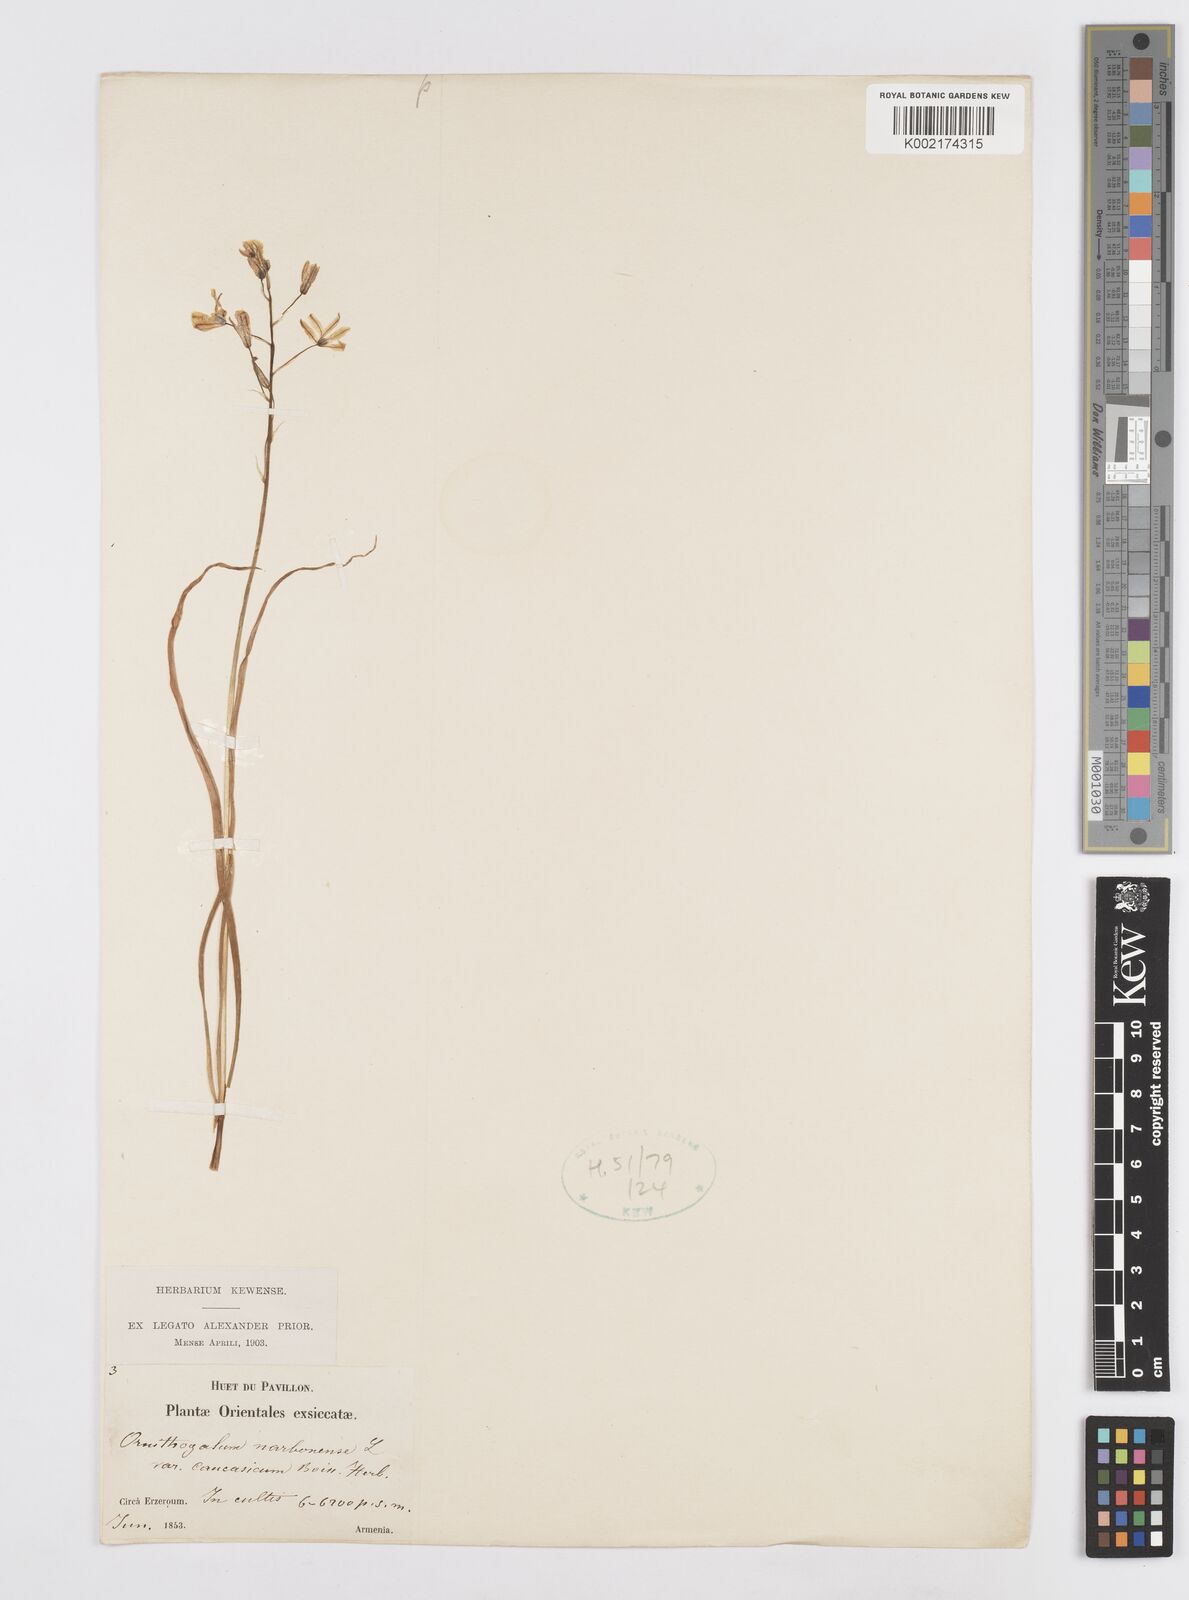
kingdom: Plantae
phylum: Tracheophyta
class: Liliopsida
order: Asparagales
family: Asparagaceae
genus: Ornithogalum
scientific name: Ornithogalum narbonense
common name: Bath-asparagus
